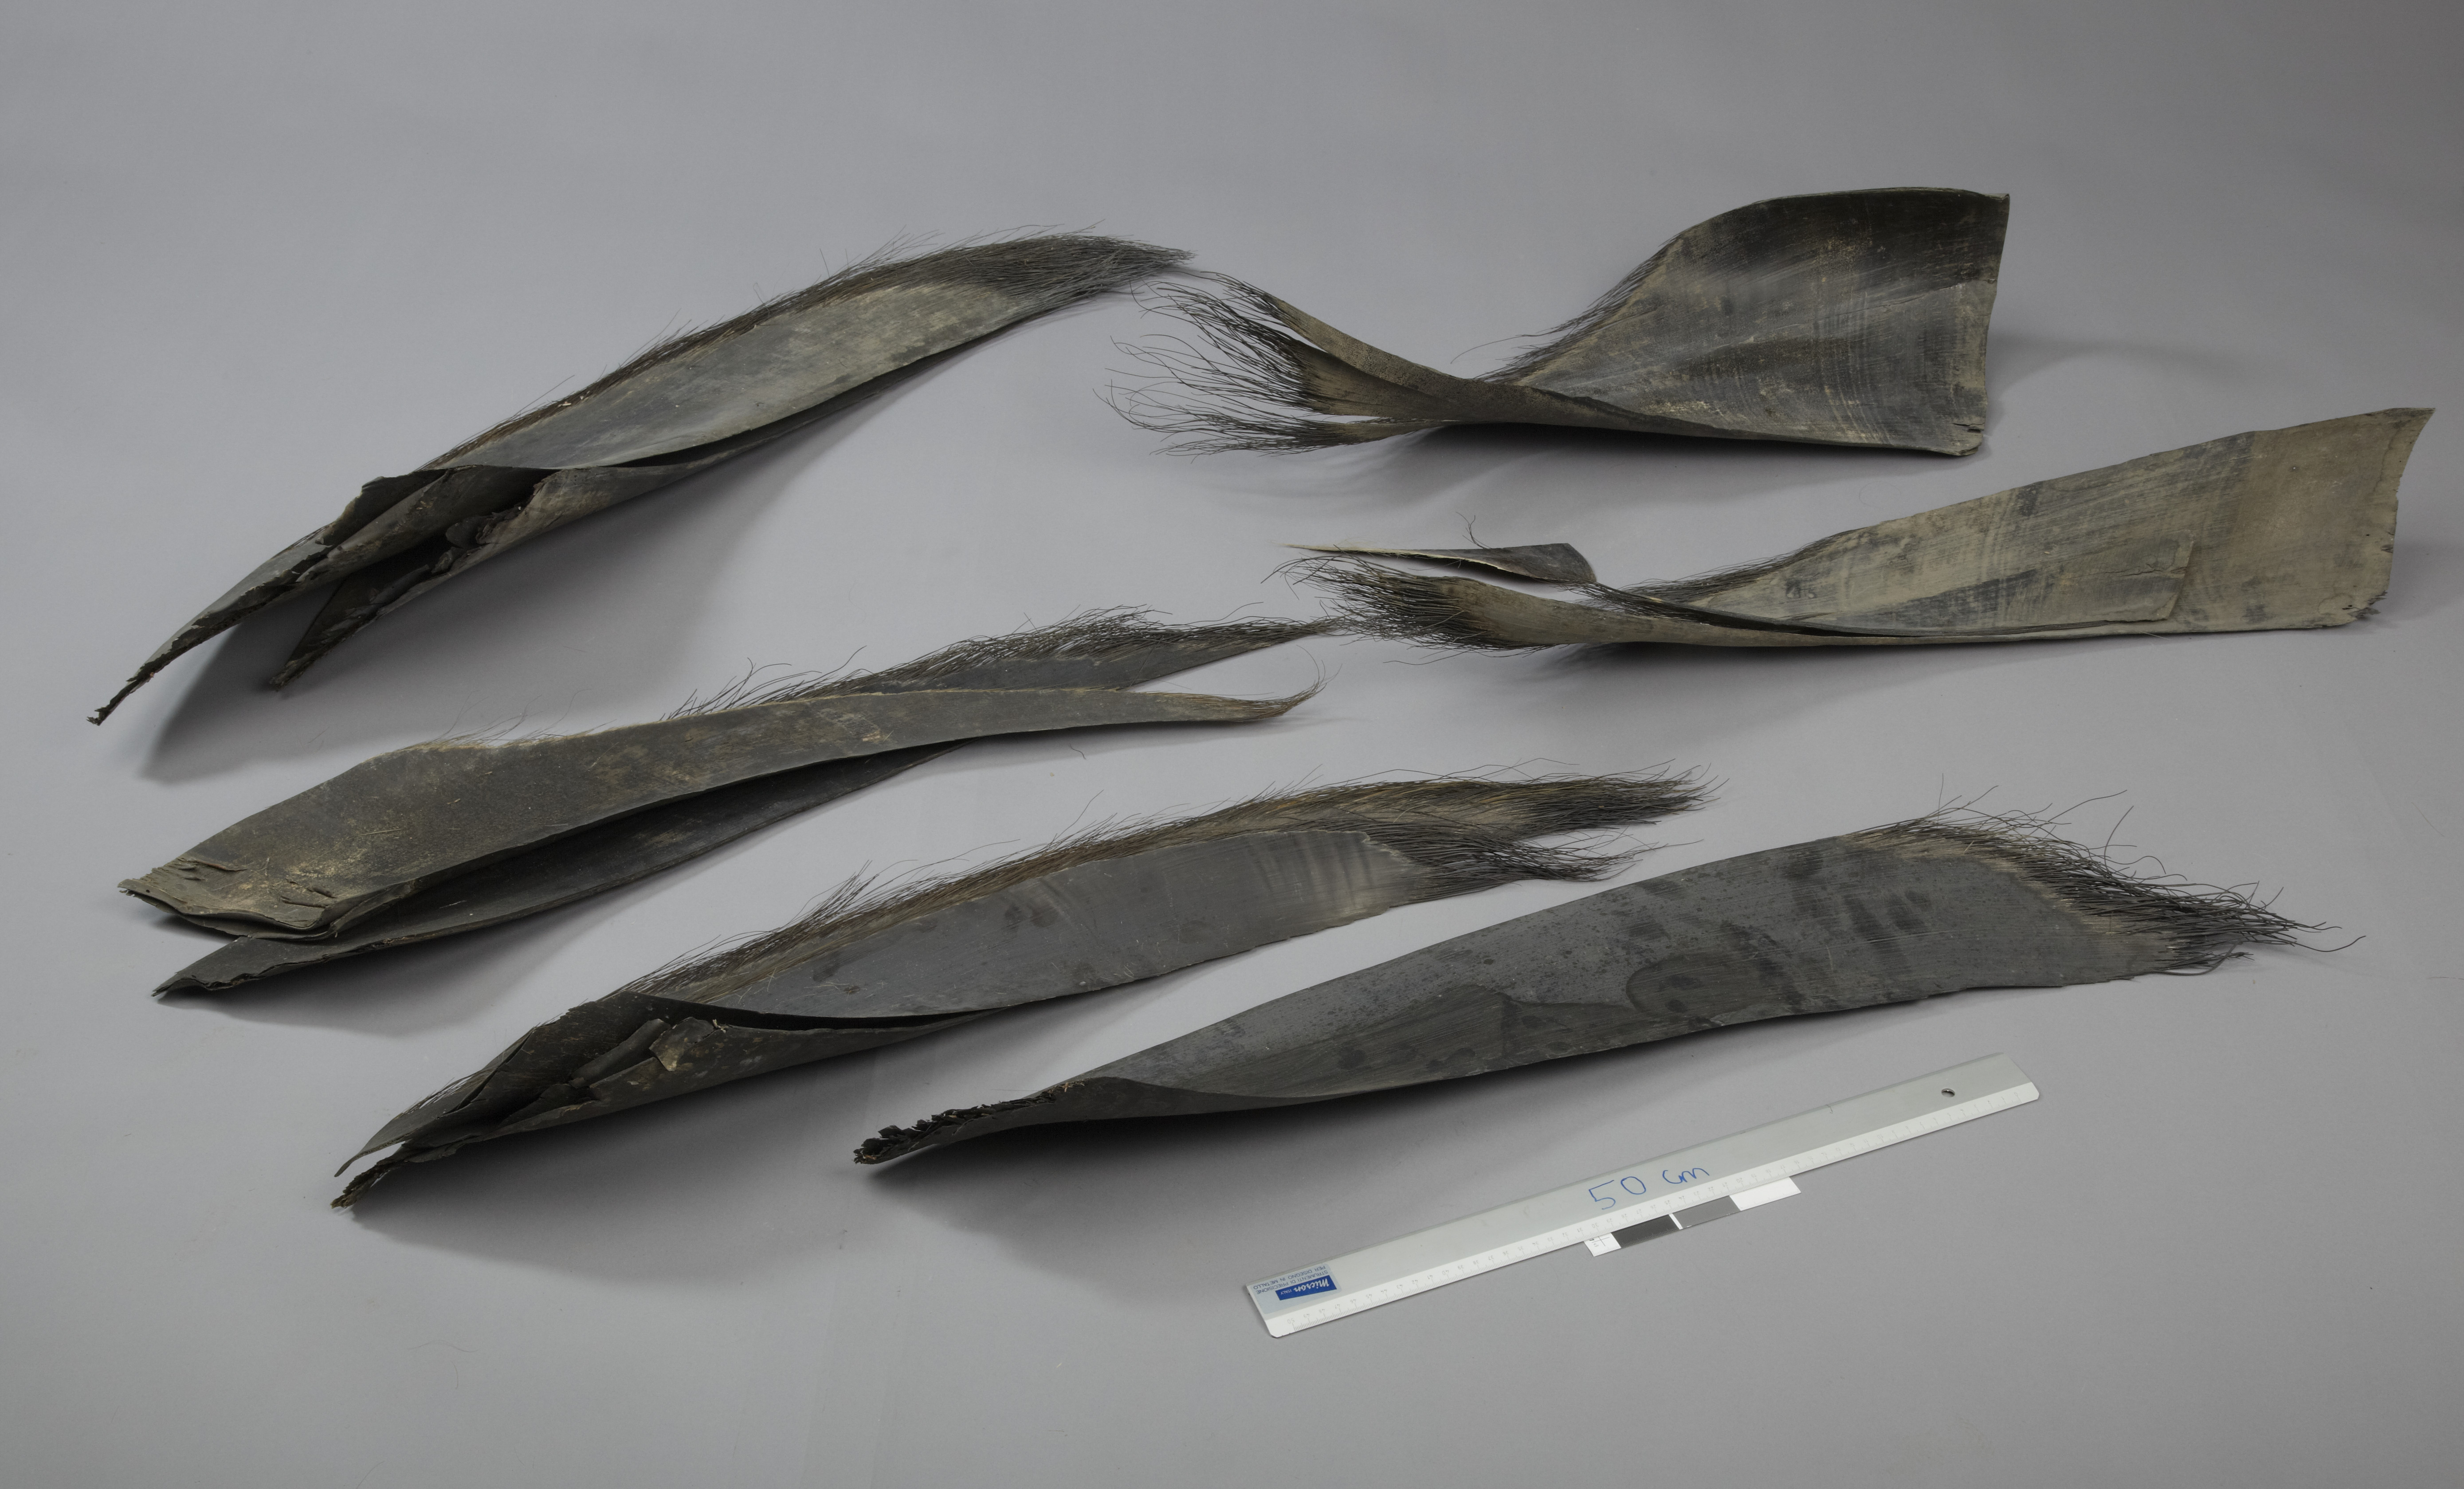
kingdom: Animalia
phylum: Chordata
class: Mammalia
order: Cetacea
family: Balaenidae
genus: Balaena
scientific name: Balaena mysticetus
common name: Bowhead whale
